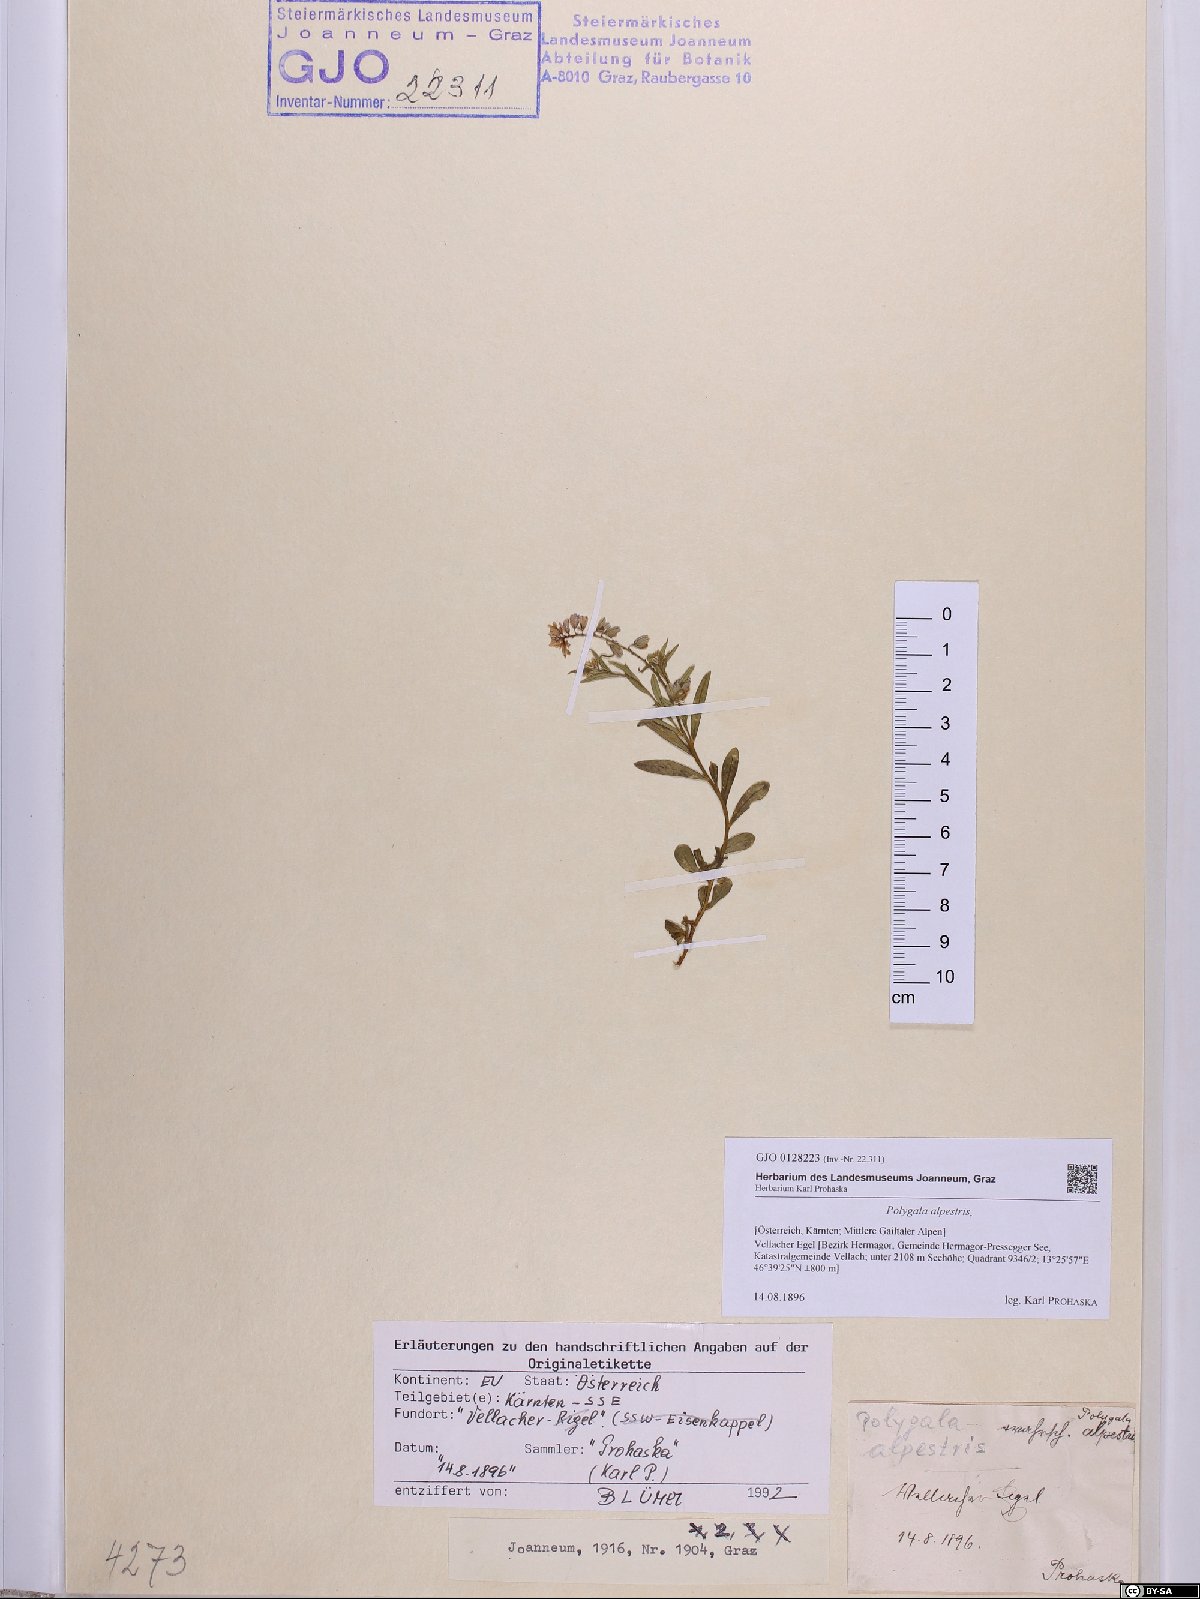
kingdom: Plantae
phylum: Tracheophyta
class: Magnoliopsida
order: Fabales
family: Polygalaceae
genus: Polygala
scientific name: Polygala alpestris
